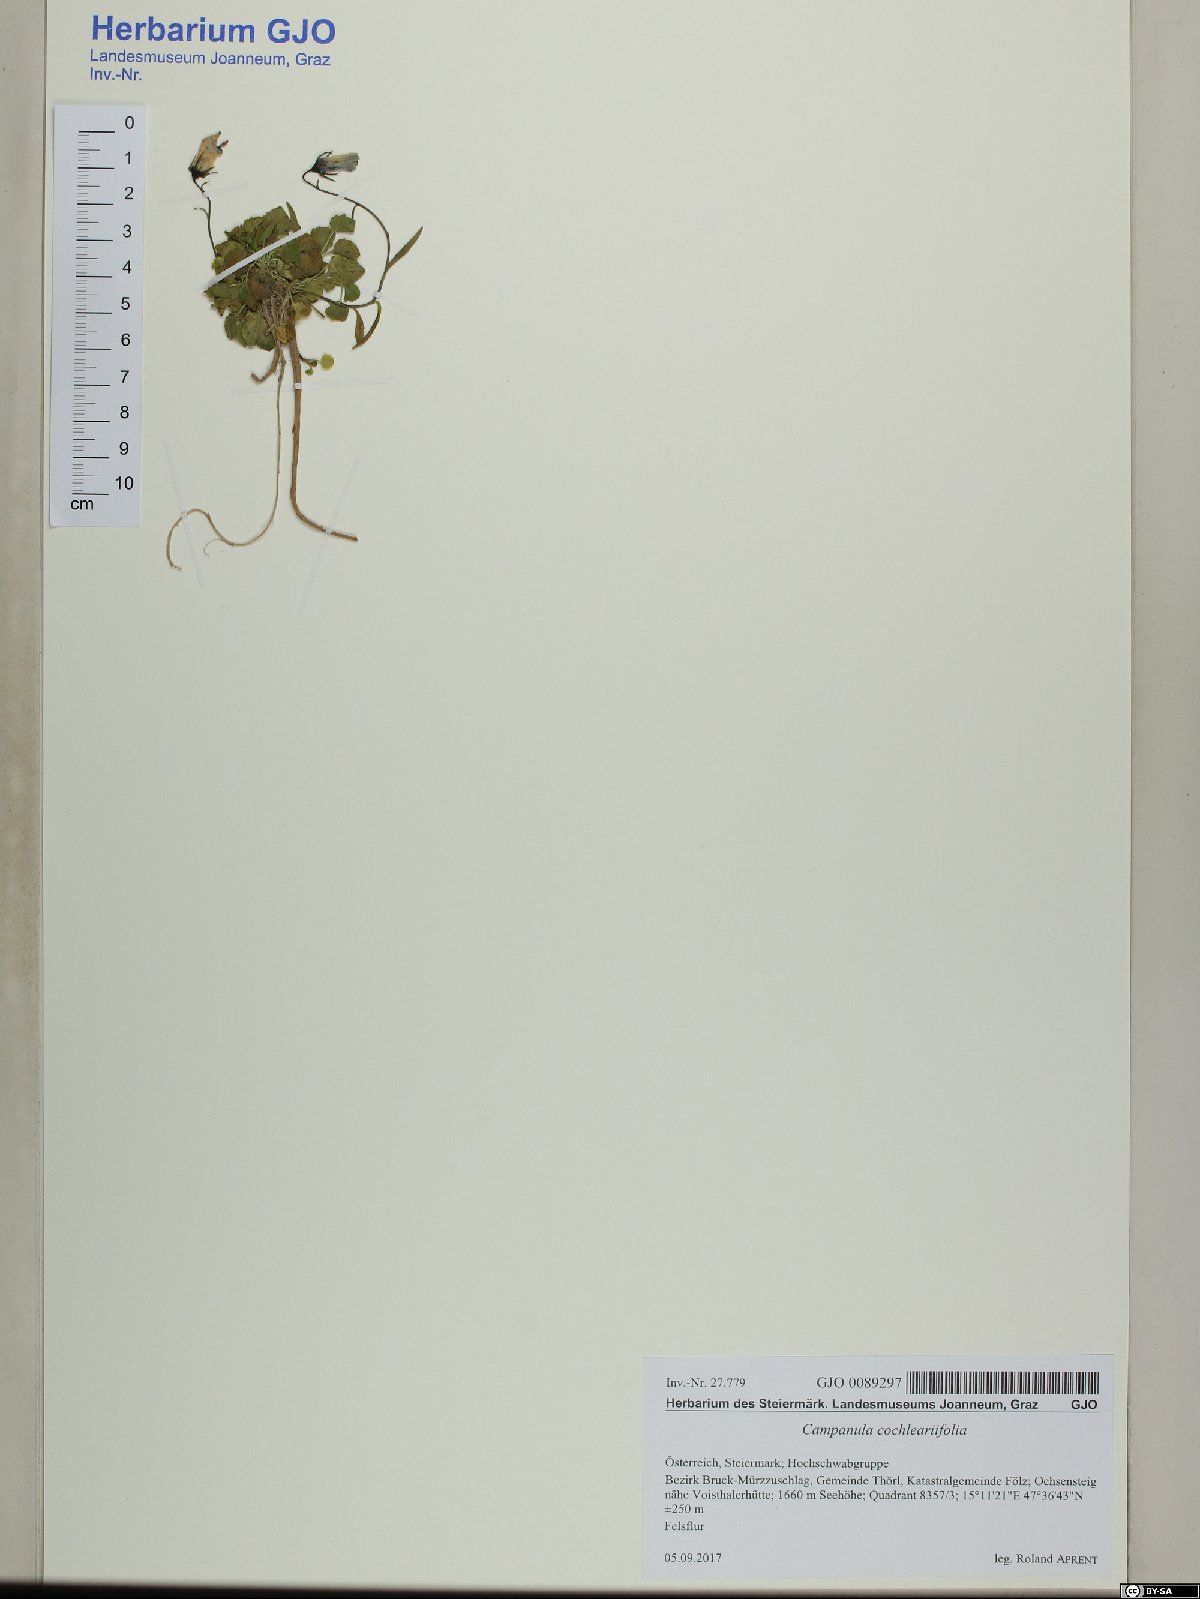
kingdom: Plantae
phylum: Tracheophyta
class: Magnoliopsida
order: Asterales
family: Campanulaceae
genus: Campanula
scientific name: Campanula cochleariifolia
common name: Fairies'-thimbles
